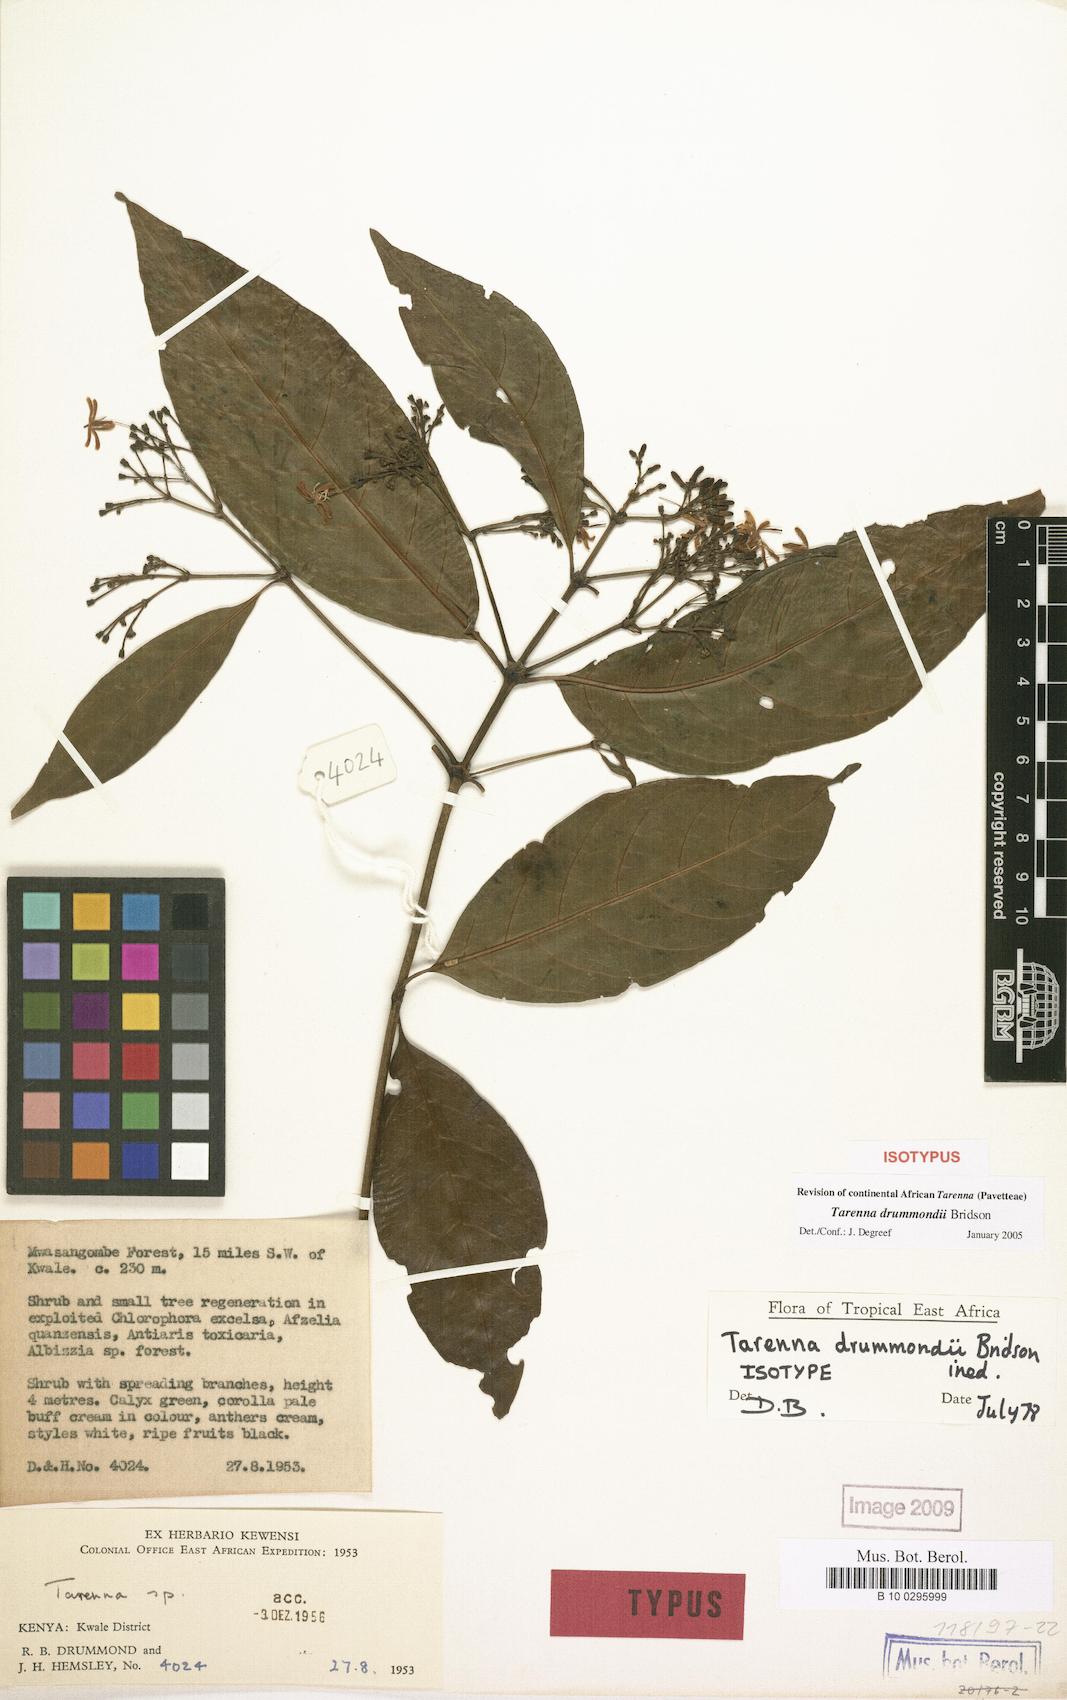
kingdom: Plantae
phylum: Tracheophyta
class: Magnoliopsida
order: Gentianales
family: Rubiaceae
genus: Tarenna
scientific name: Tarenna drummondii
